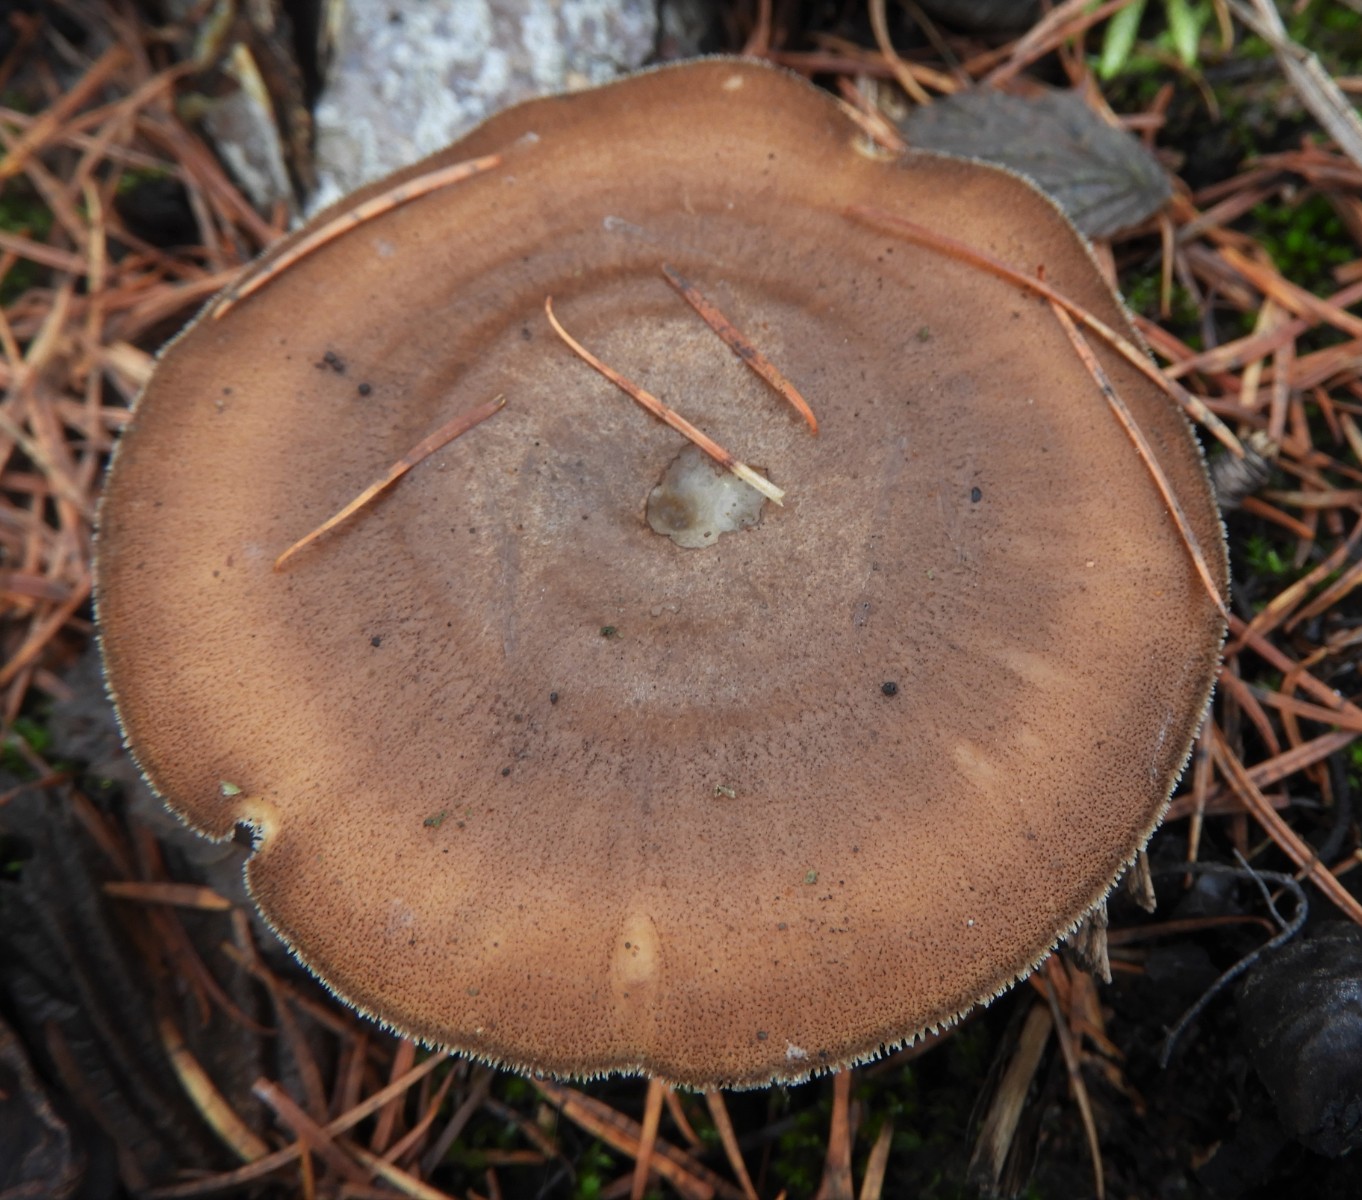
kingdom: Fungi
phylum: Basidiomycota
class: Agaricomycetes
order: Polyporales
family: Polyporaceae
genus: Lentinus
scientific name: Lentinus brumalis
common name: vinter-stilkporesvamp
